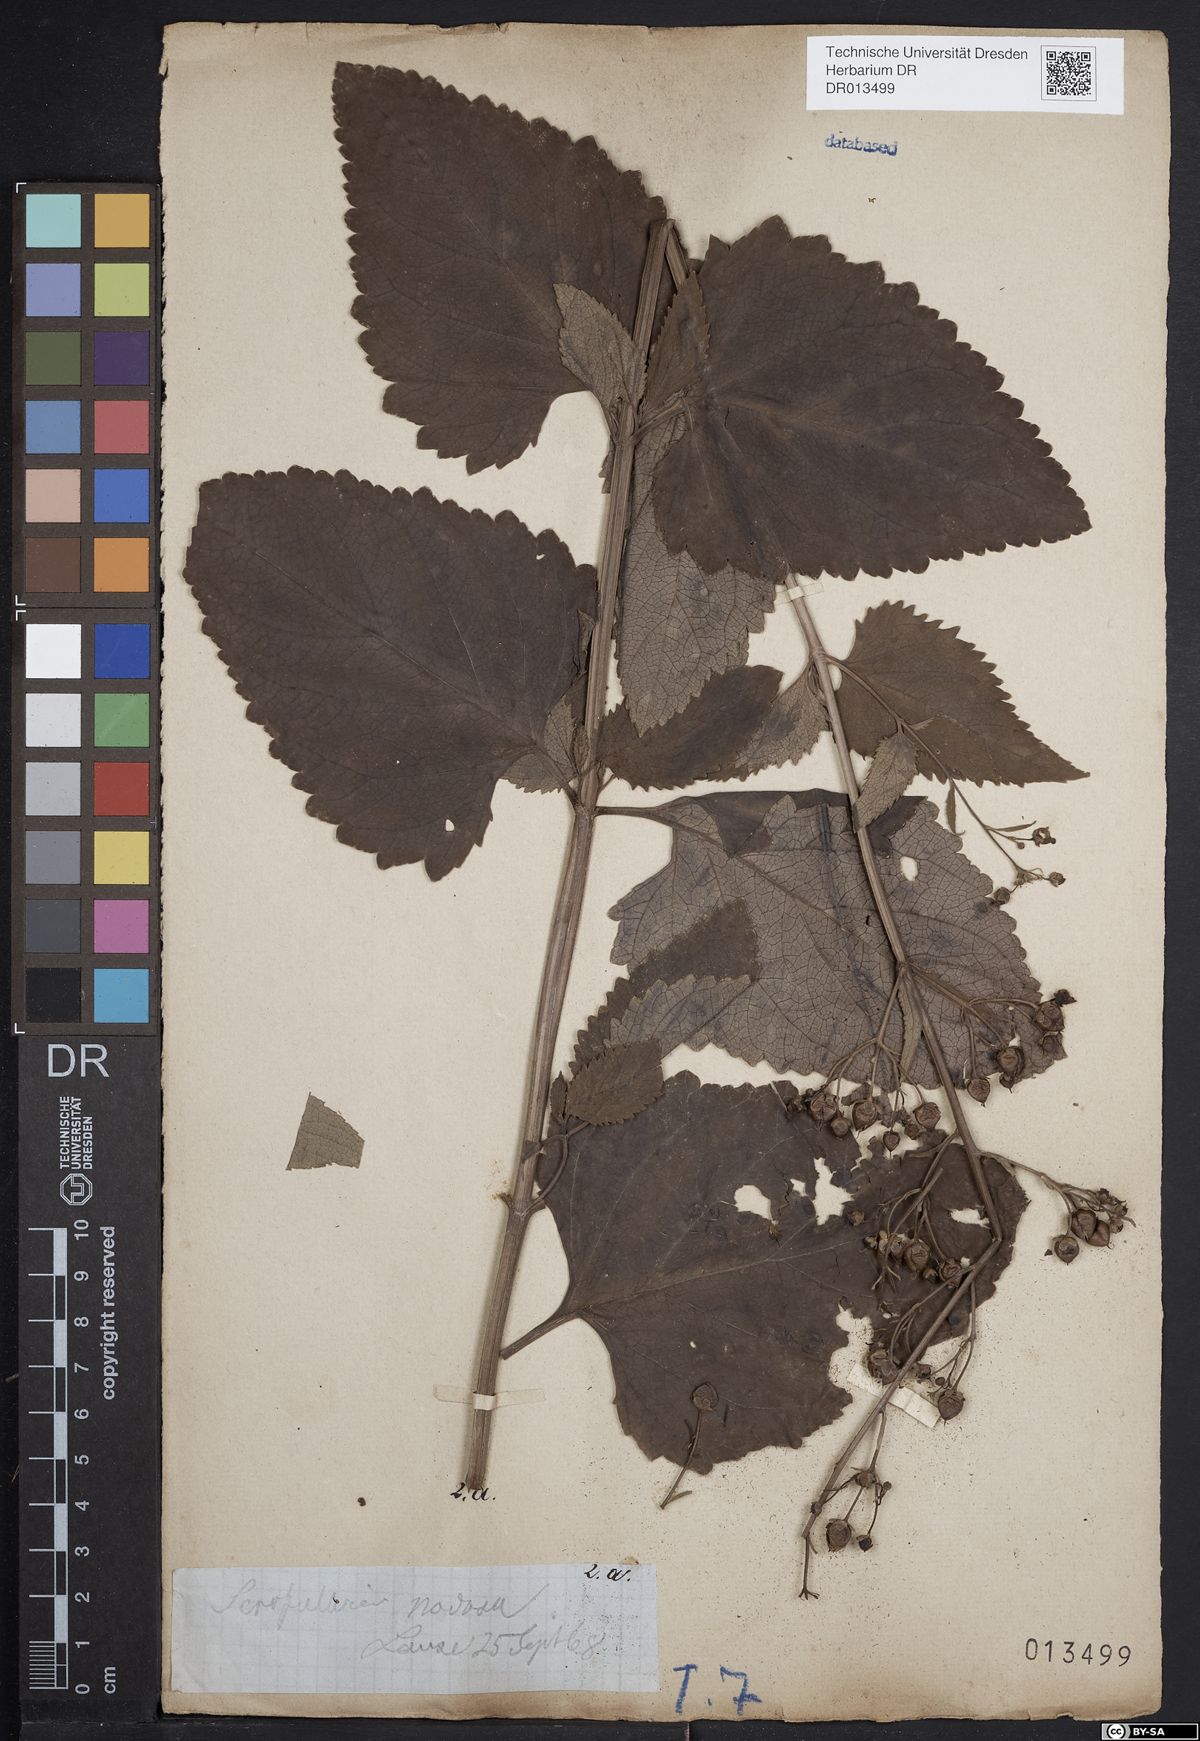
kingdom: Plantae
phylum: Tracheophyta
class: Magnoliopsida
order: Lamiales
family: Scrophulariaceae
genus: Scrophularia
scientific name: Scrophularia nodosa
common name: Common figwort
